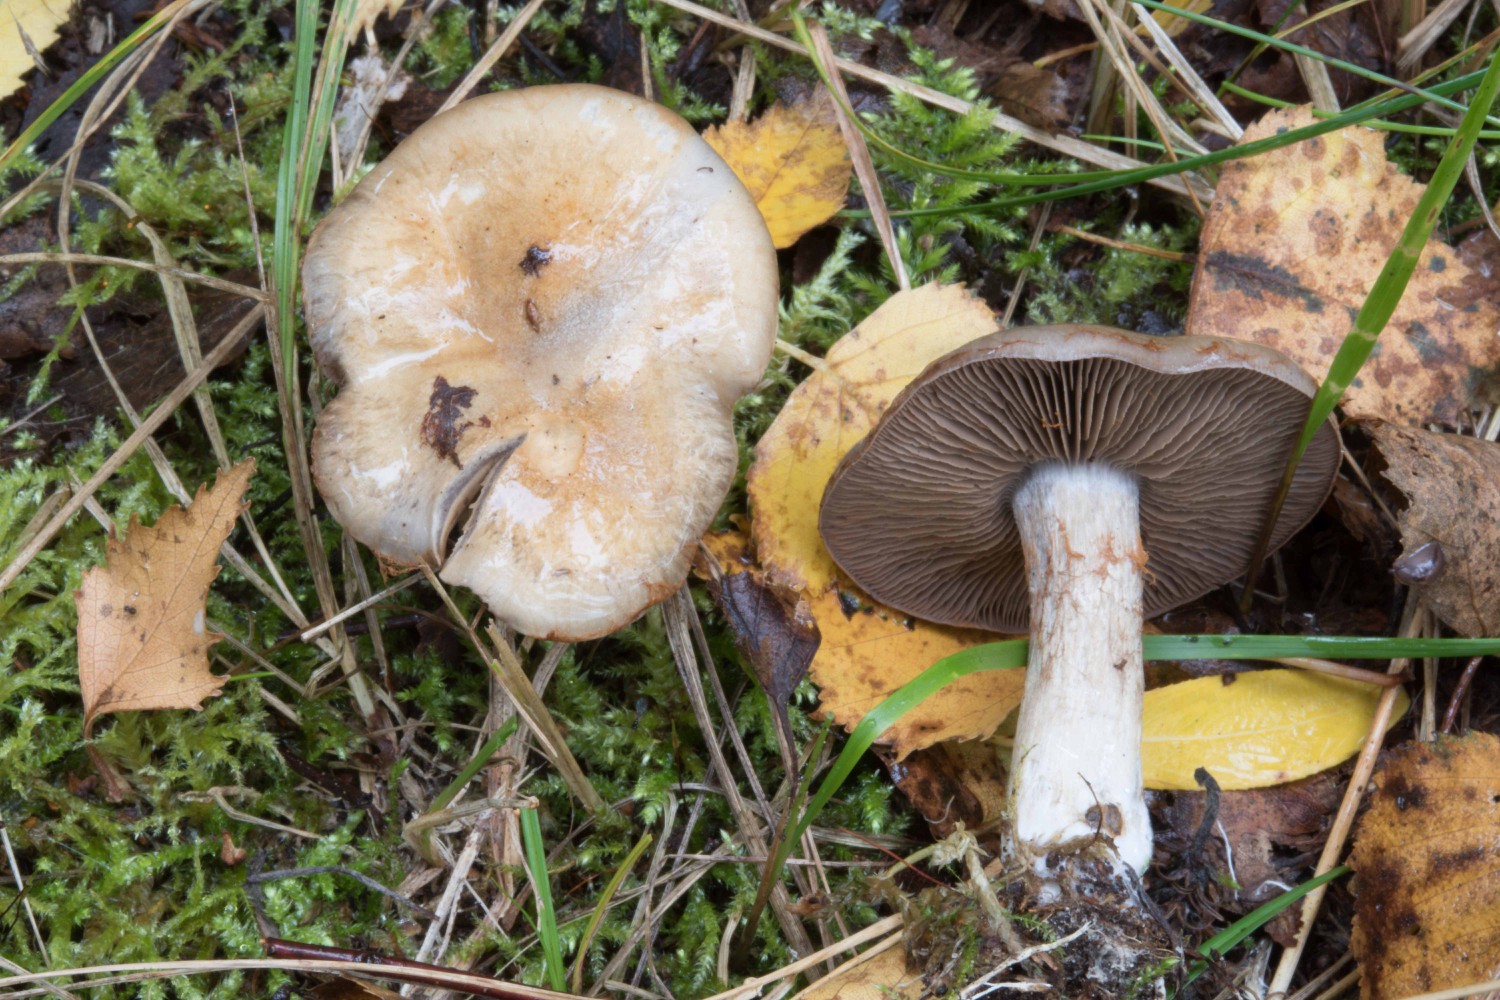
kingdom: Fungi
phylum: Basidiomycota
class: Agaricomycetes
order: Agaricales
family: Cortinariaceae
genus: Cortinarius
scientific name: Cortinarius
